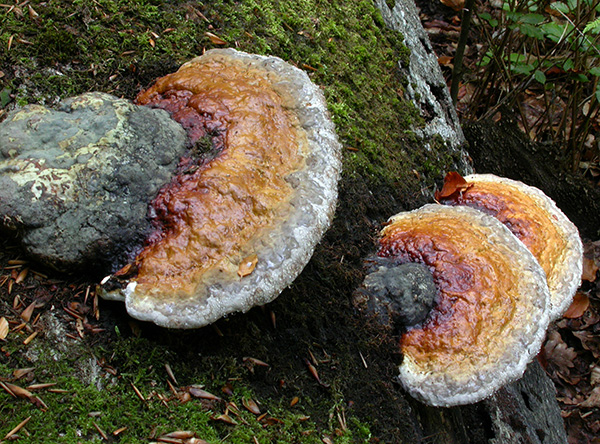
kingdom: Fungi
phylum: Basidiomycota
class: Agaricomycetes
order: Polyporales
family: Fomitopsidaceae
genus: Fomitopsis
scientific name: Fomitopsis pinicola
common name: randbæltet hovporesvamp
